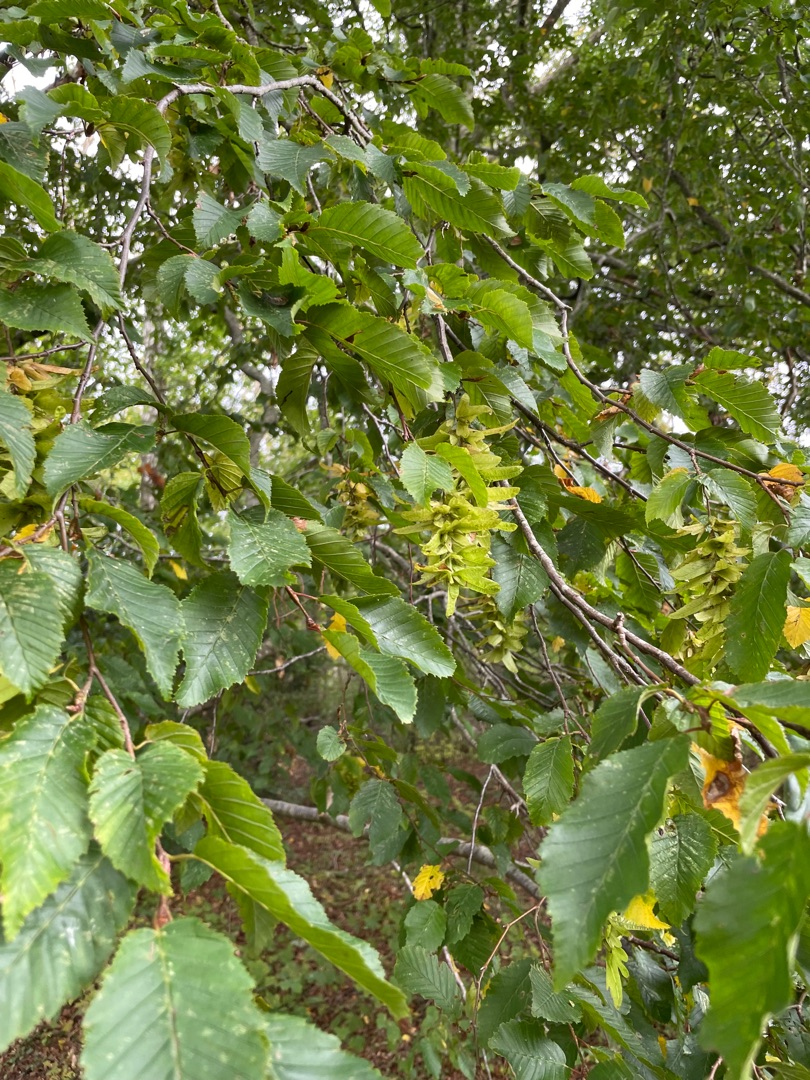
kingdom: Plantae
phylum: Tracheophyta
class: Magnoliopsida
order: Fagales
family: Betulaceae
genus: Carpinus
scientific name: Carpinus betulus
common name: Avnbøg
